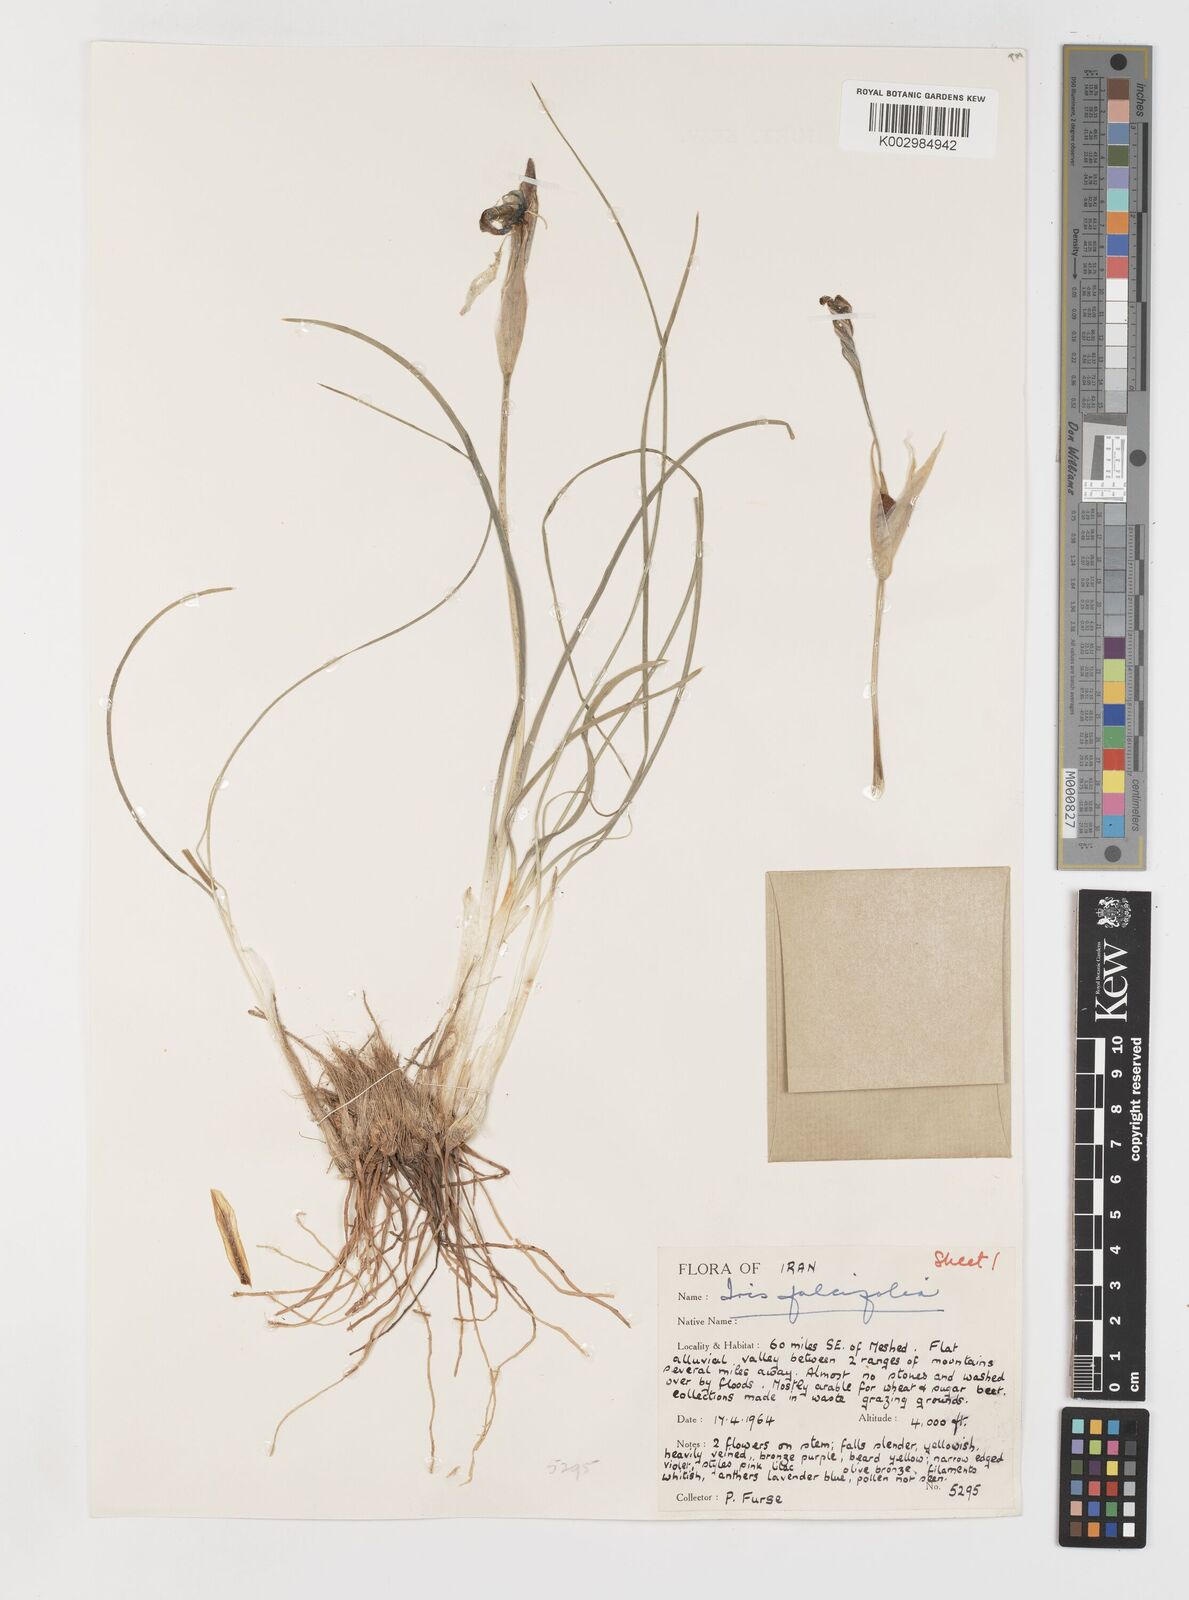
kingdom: Plantae
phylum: Tracheophyta
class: Liliopsida
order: Asparagales
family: Iridaceae
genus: Iris
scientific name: Iris longiscapa
